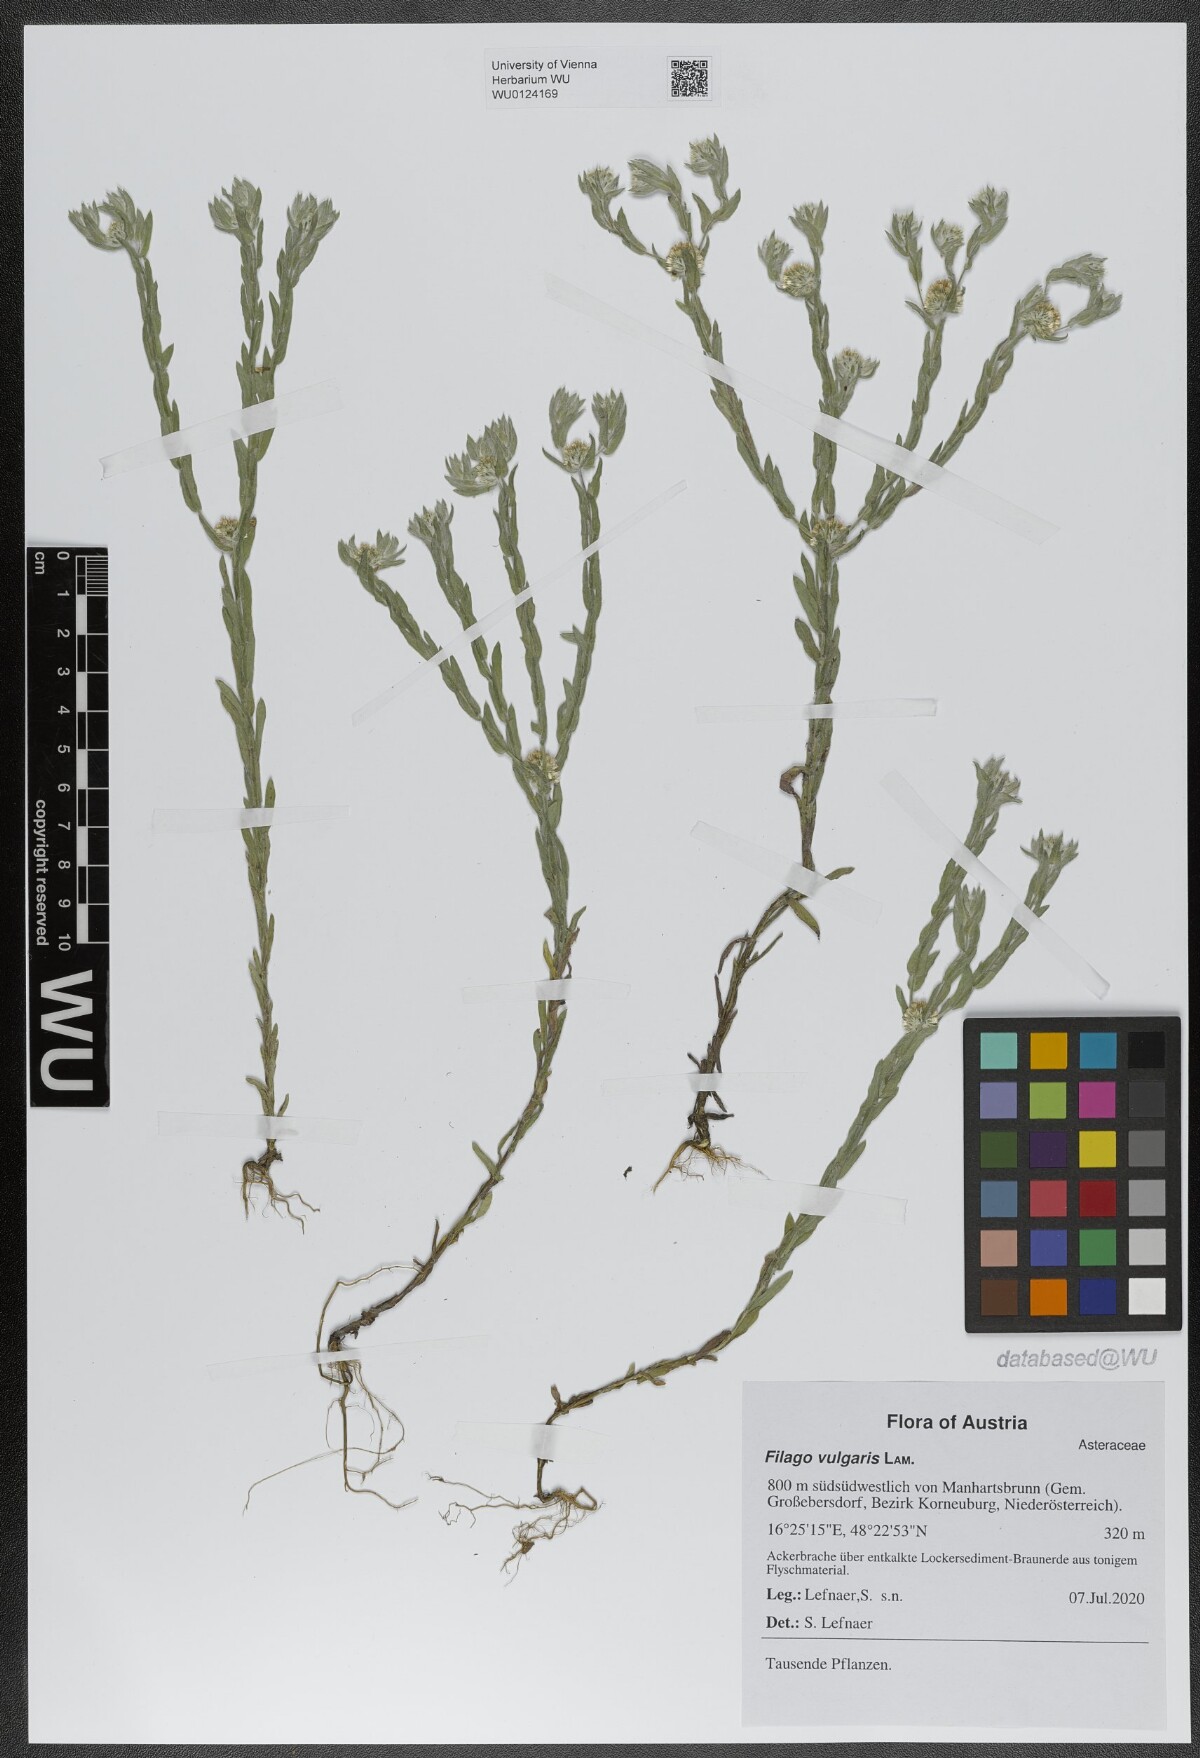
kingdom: Plantae
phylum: Tracheophyta
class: Magnoliopsida
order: Asterales
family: Asteraceae
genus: Filago
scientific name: Filago germanica
